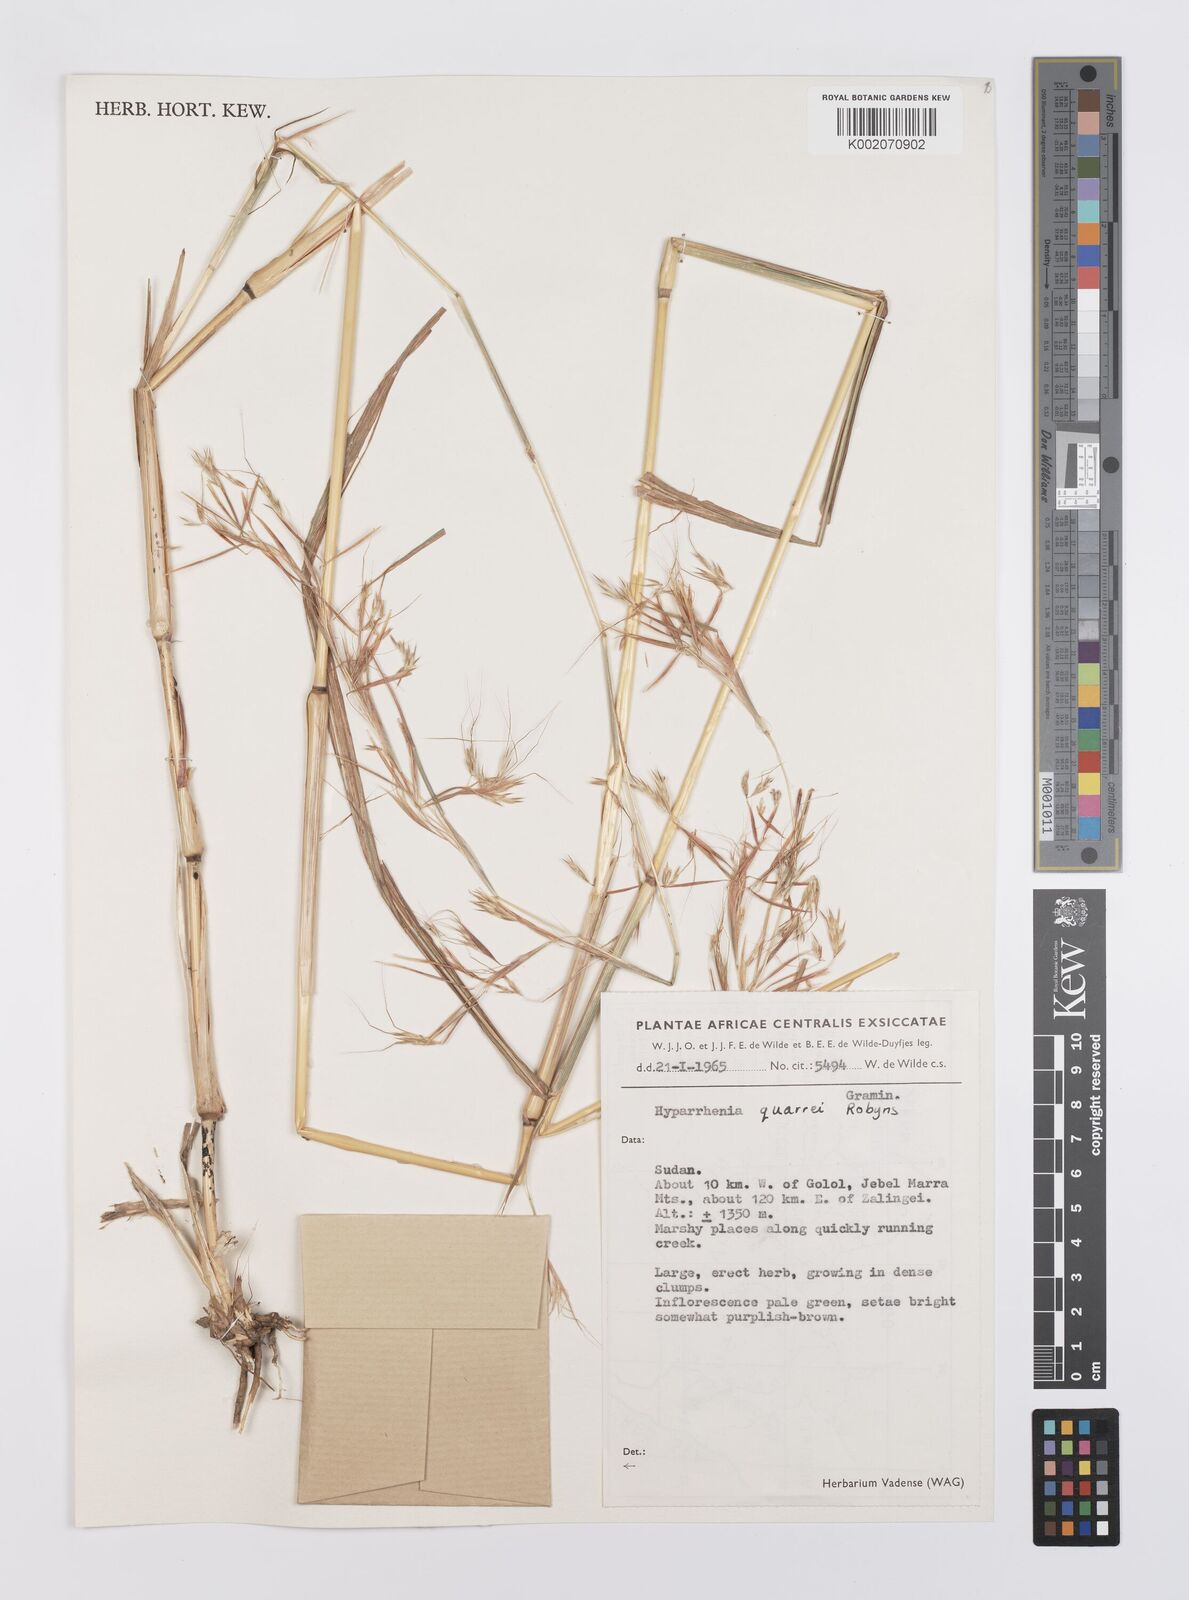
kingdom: Plantae
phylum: Tracheophyta
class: Liliopsida
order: Poales
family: Poaceae
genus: Hyparrhenia
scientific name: Hyparrhenia quarrei
